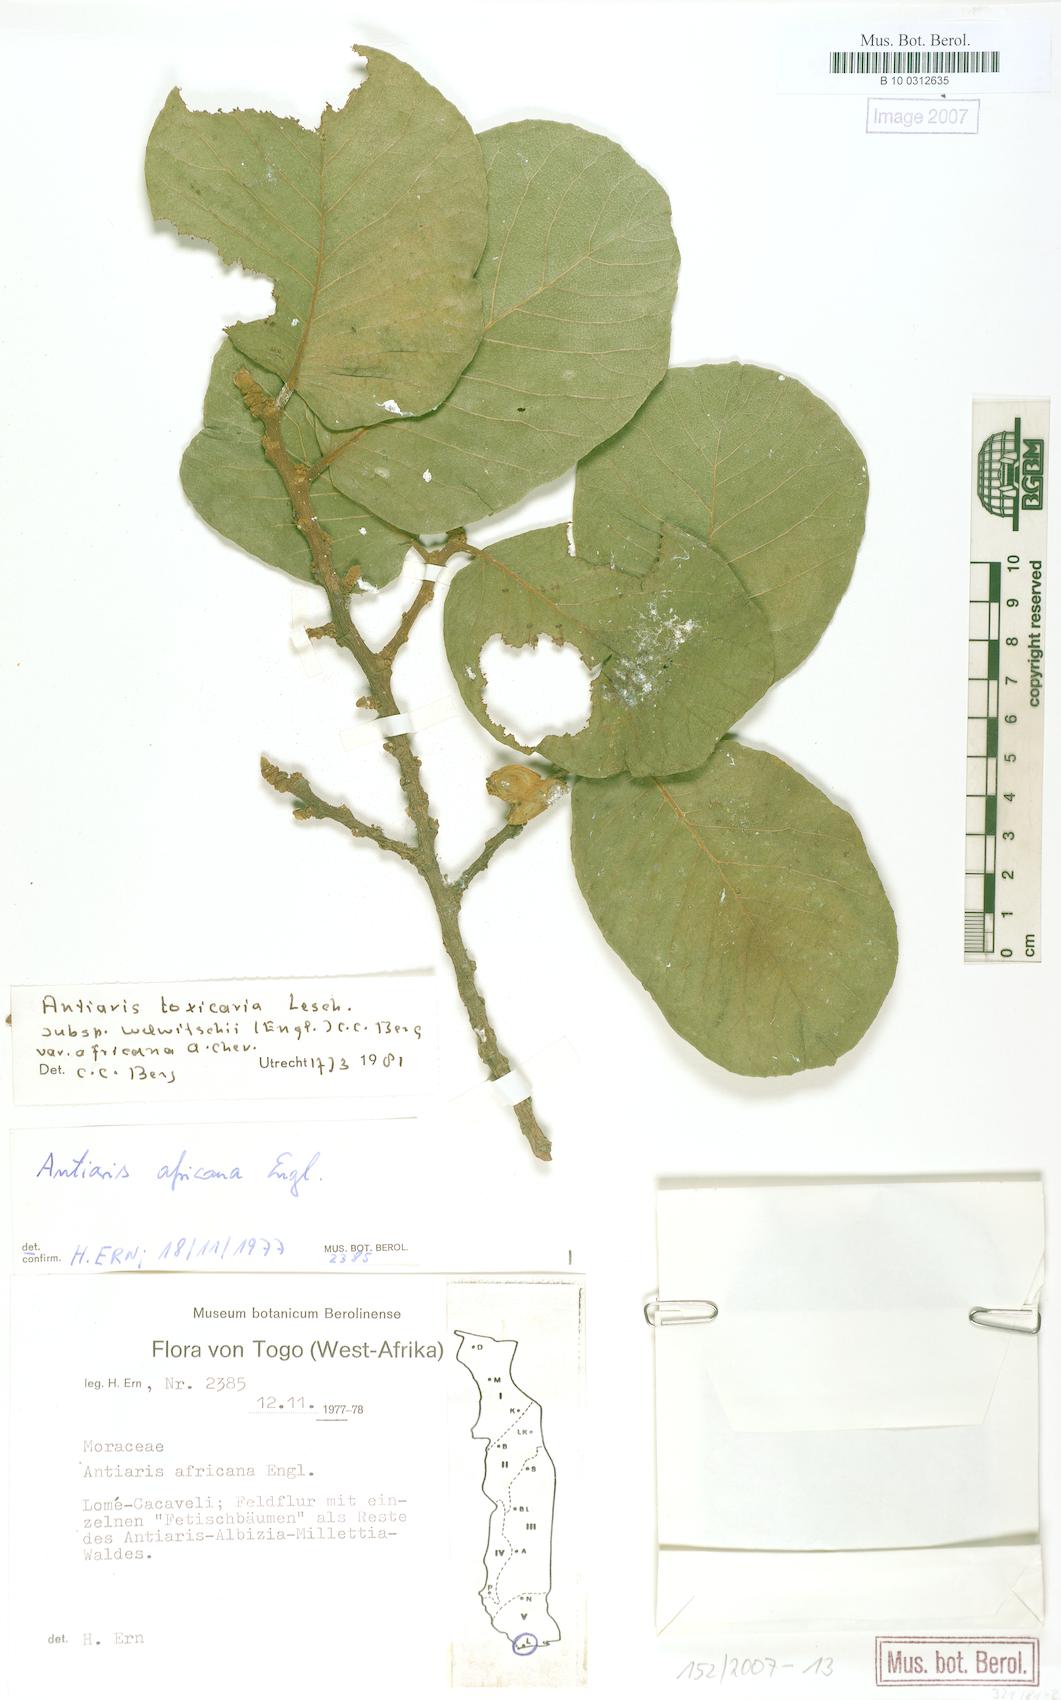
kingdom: Plantae
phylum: Tracheophyta
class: Magnoliopsida
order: Rosales
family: Moraceae
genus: Antiaris
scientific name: Antiaris toxicaria
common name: Sackingtree
